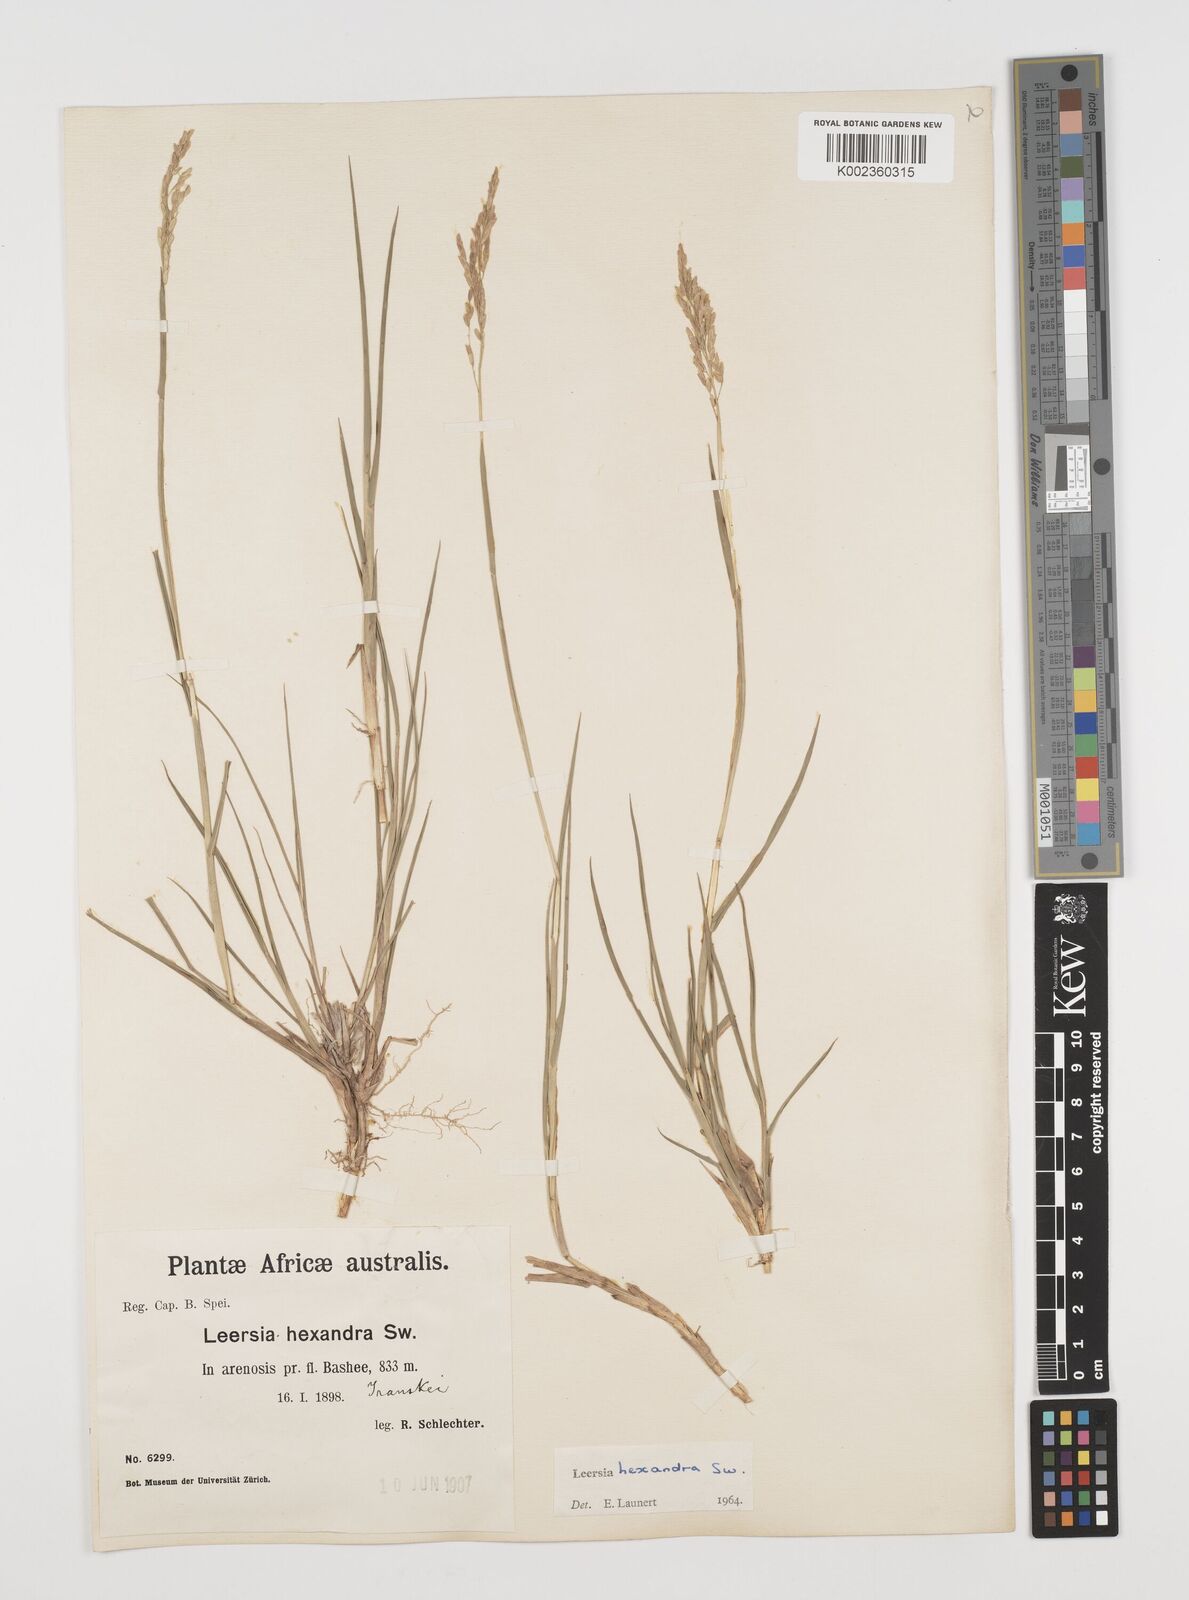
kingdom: Plantae
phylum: Tracheophyta
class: Liliopsida
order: Poales
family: Poaceae
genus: Leersia
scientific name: Leersia hexandra
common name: Southern cut grass
